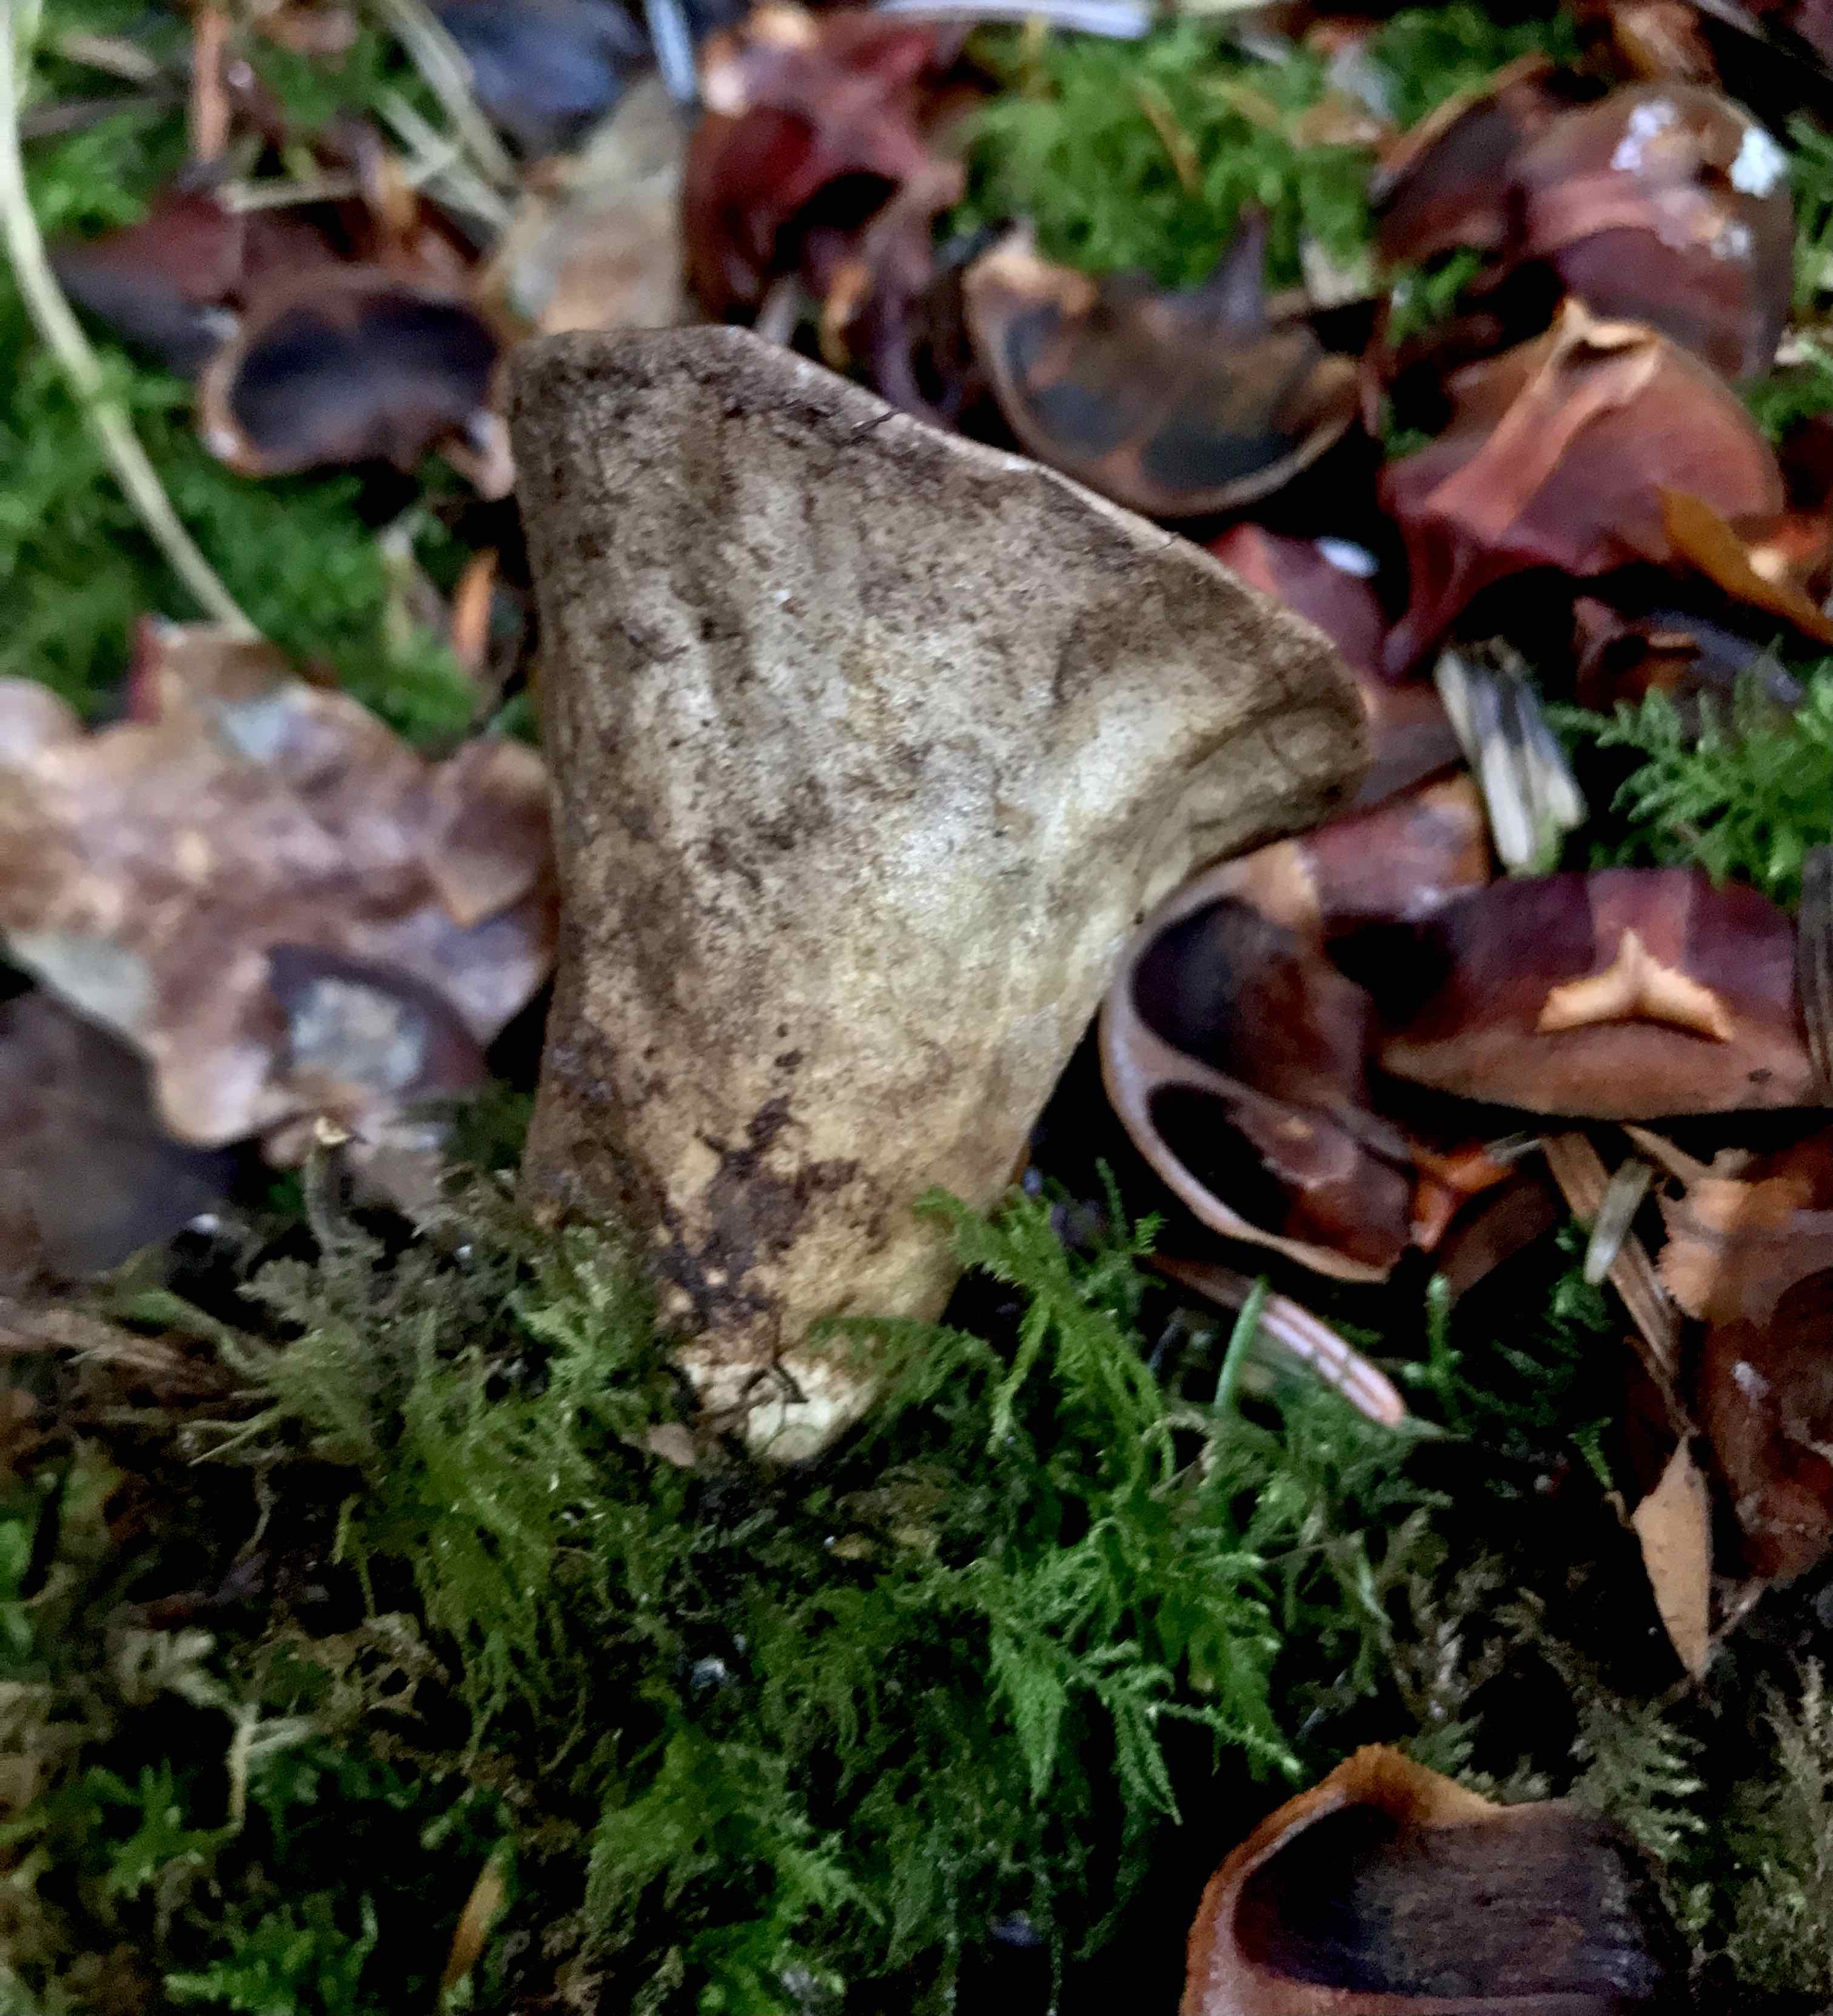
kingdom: Fungi
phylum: Basidiomycota
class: Agaricomycetes
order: Agaricales
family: Agaricaceae
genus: Lycoperdon
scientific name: Lycoperdon
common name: støvbold
